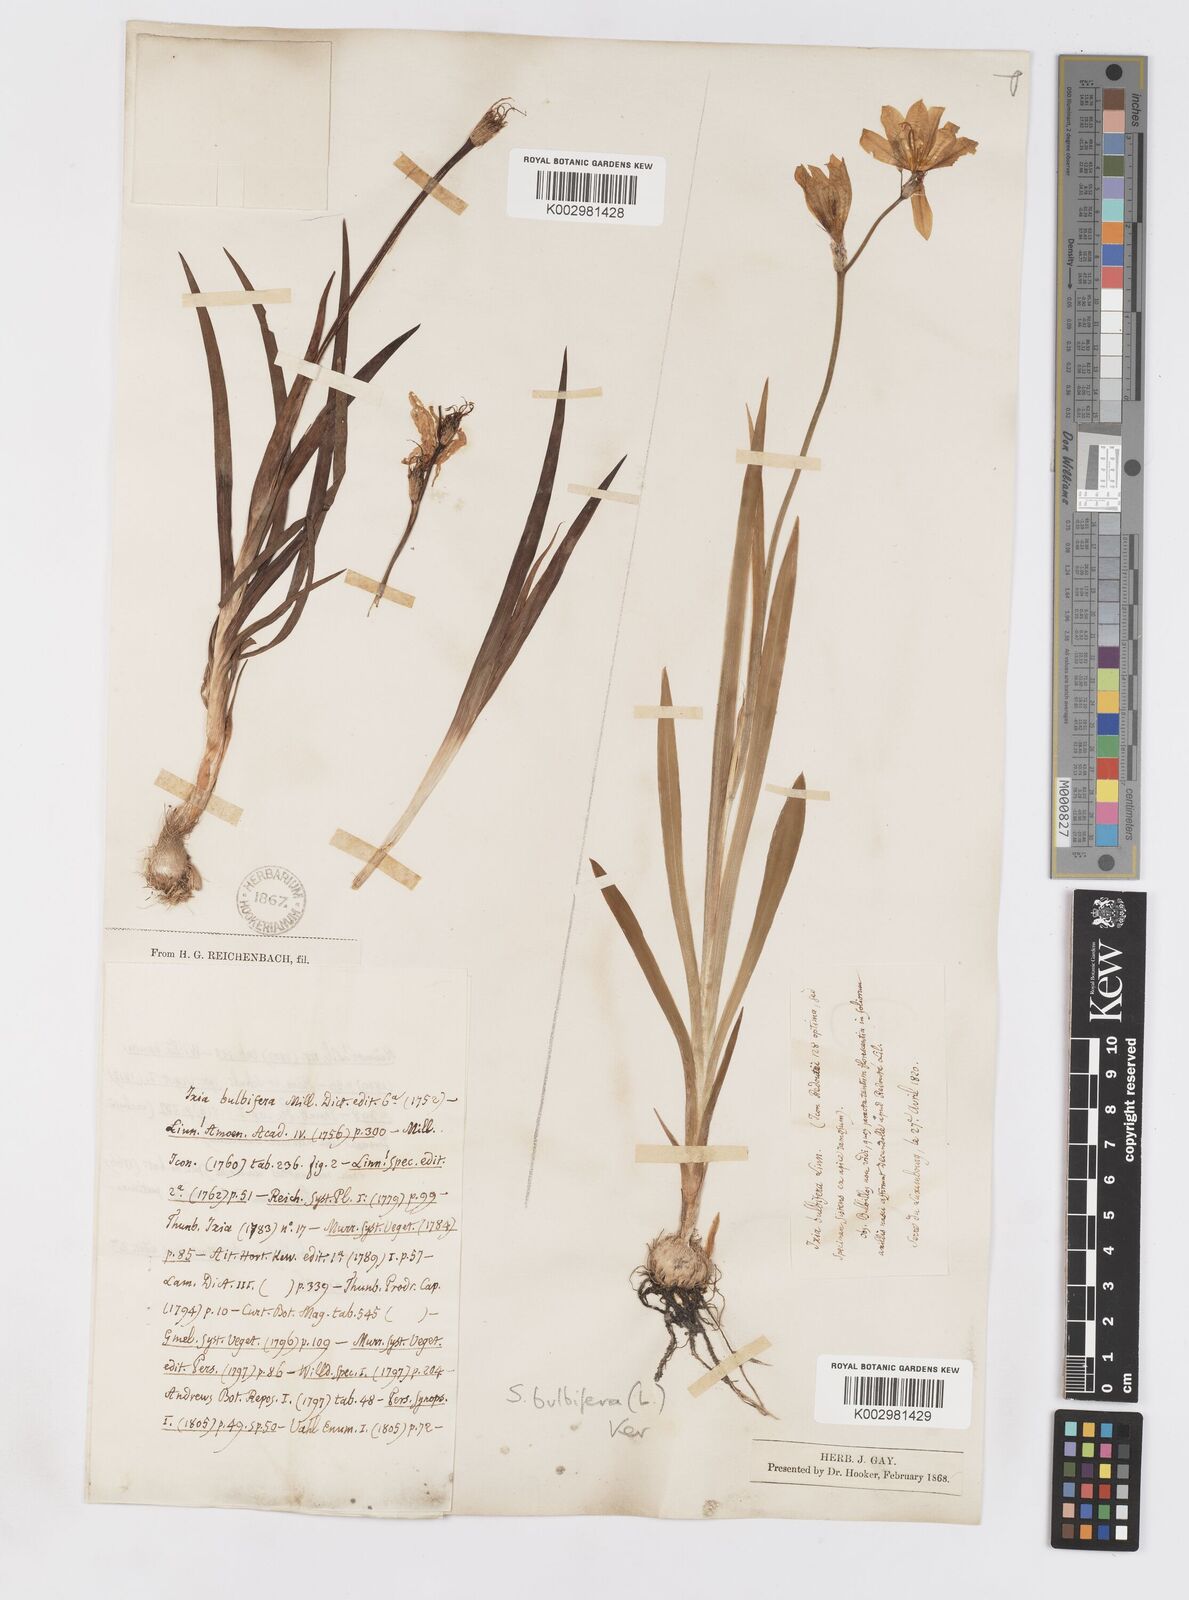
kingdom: Plantae
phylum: Tracheophyta
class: Liliopsida
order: Asparagales
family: Iridaceae
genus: Sparaxis
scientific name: Sparaxis bulbifera
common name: Harlequin-flower
